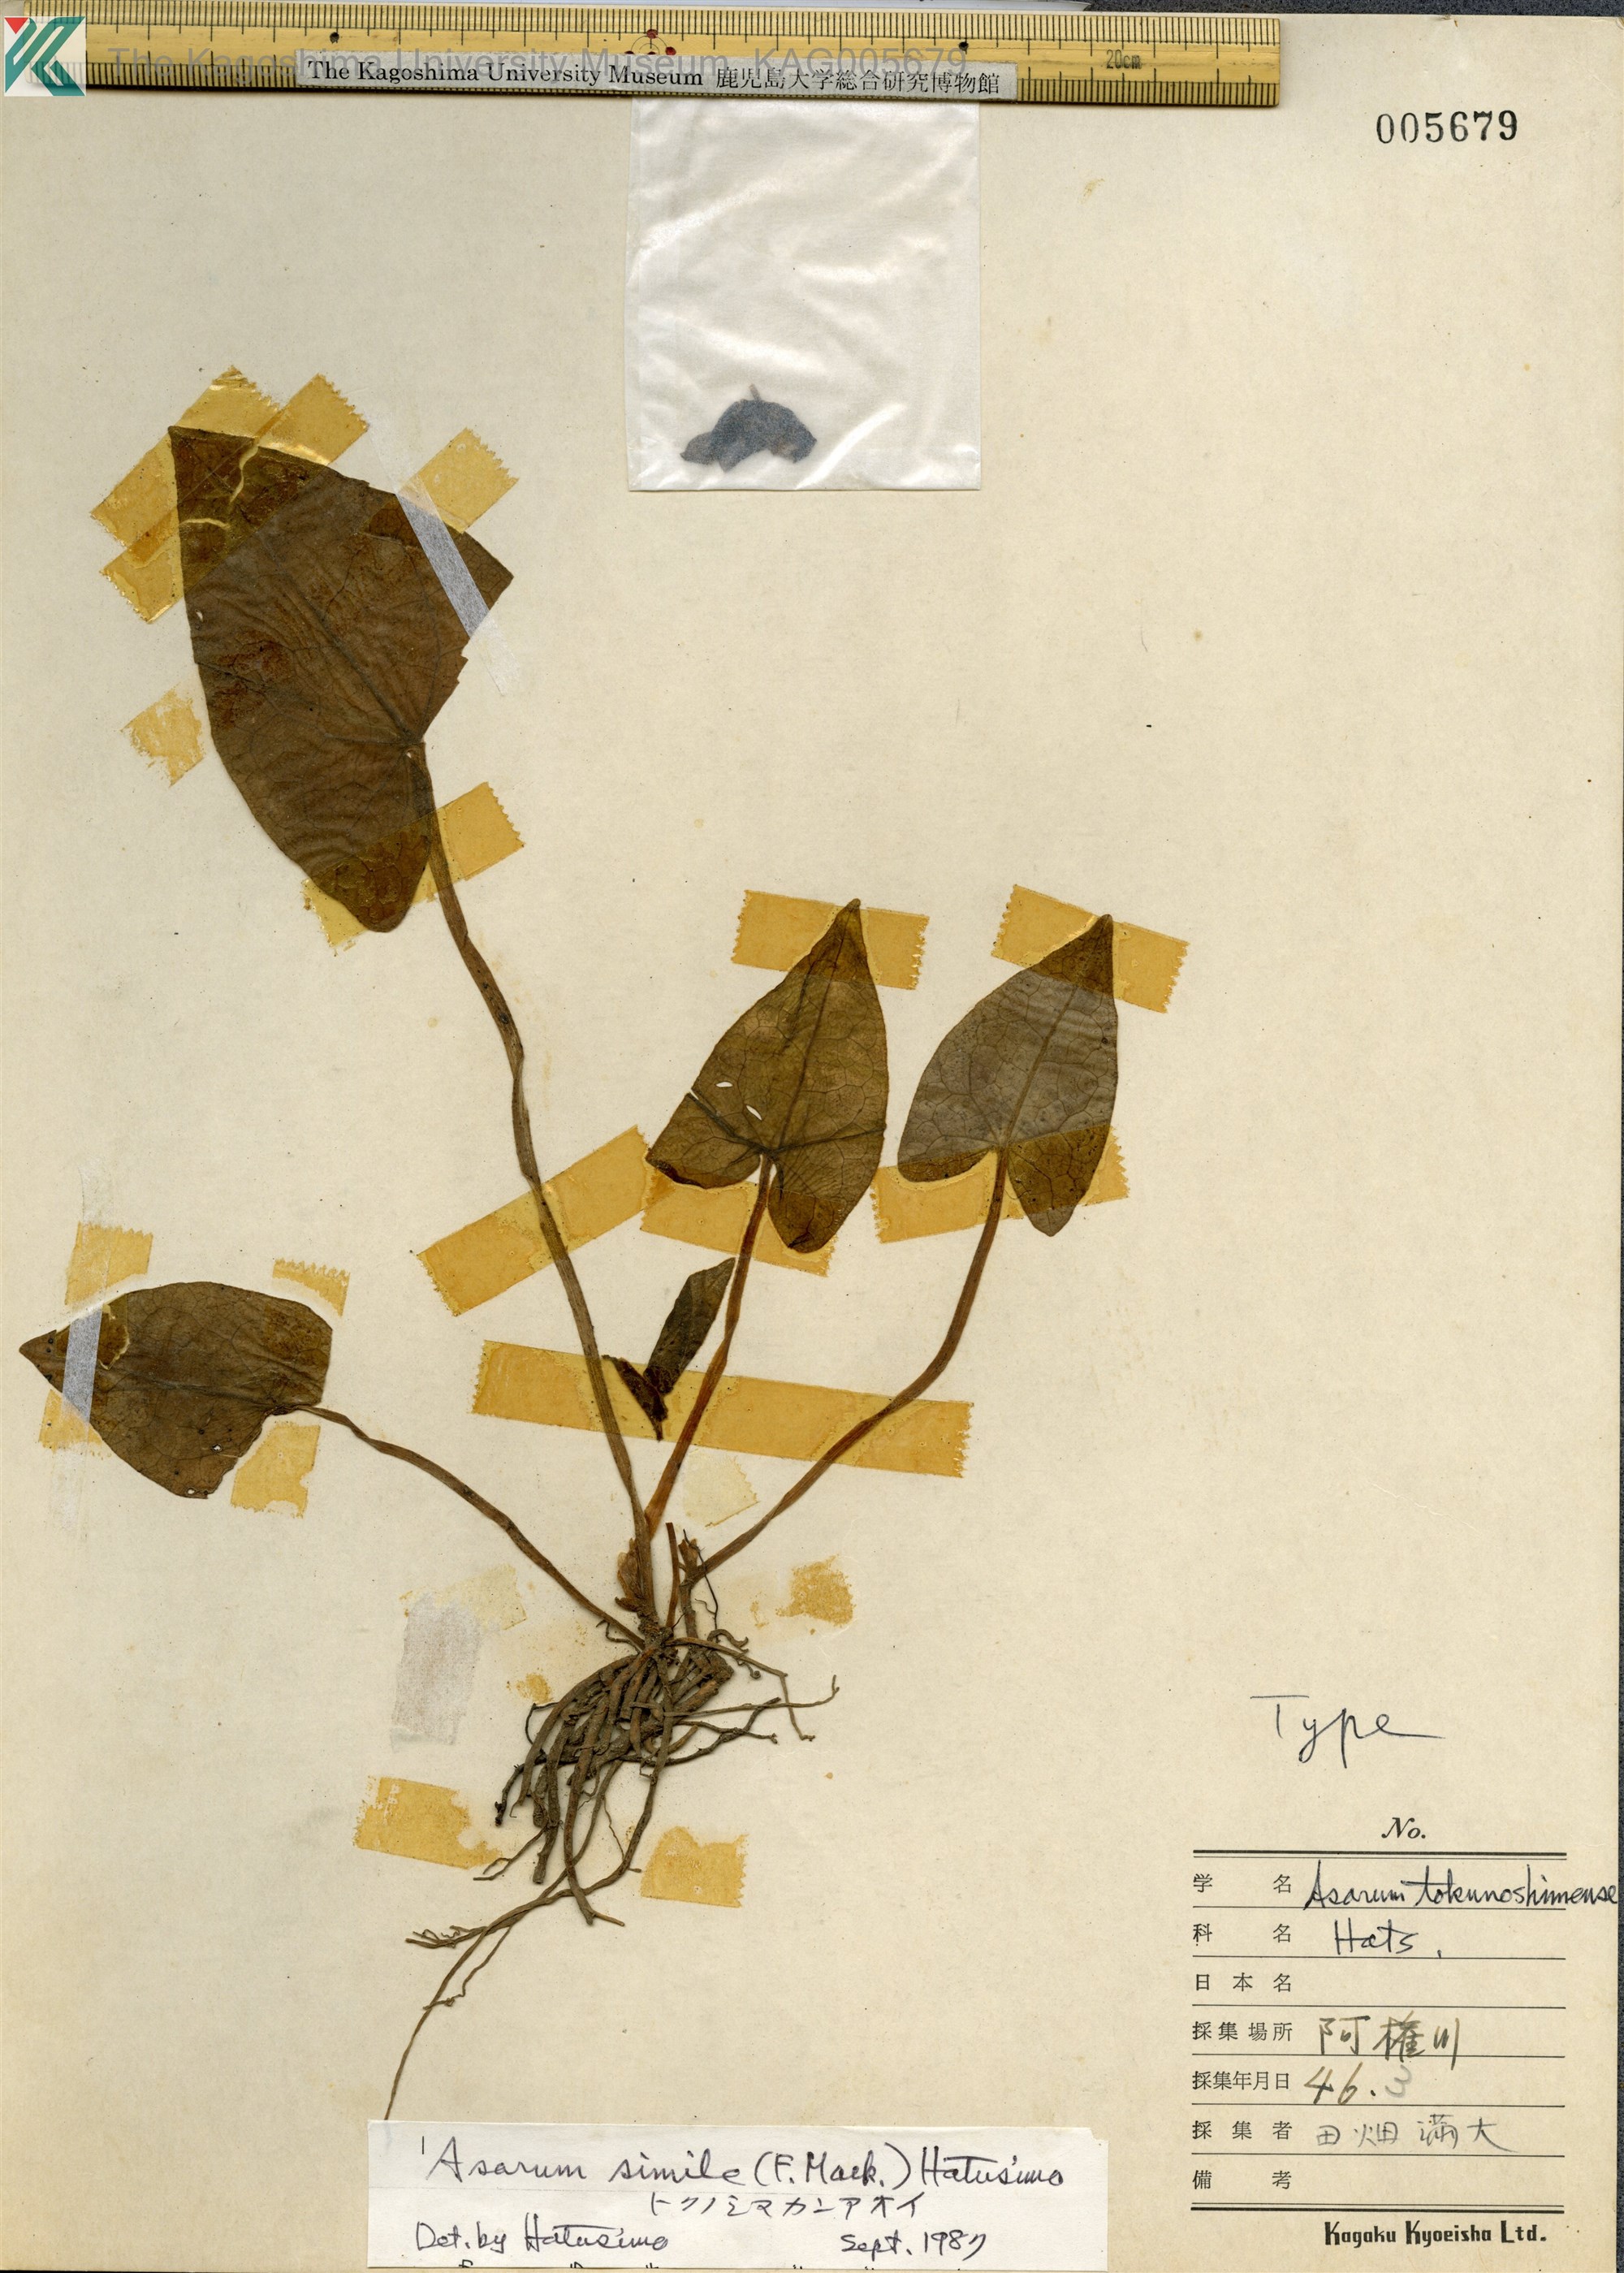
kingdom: Plantae
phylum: Tracheophyta
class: Magnoliopsida
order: Piperales
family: Aristolochiaceae
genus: Asarum
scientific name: Asarum simile
